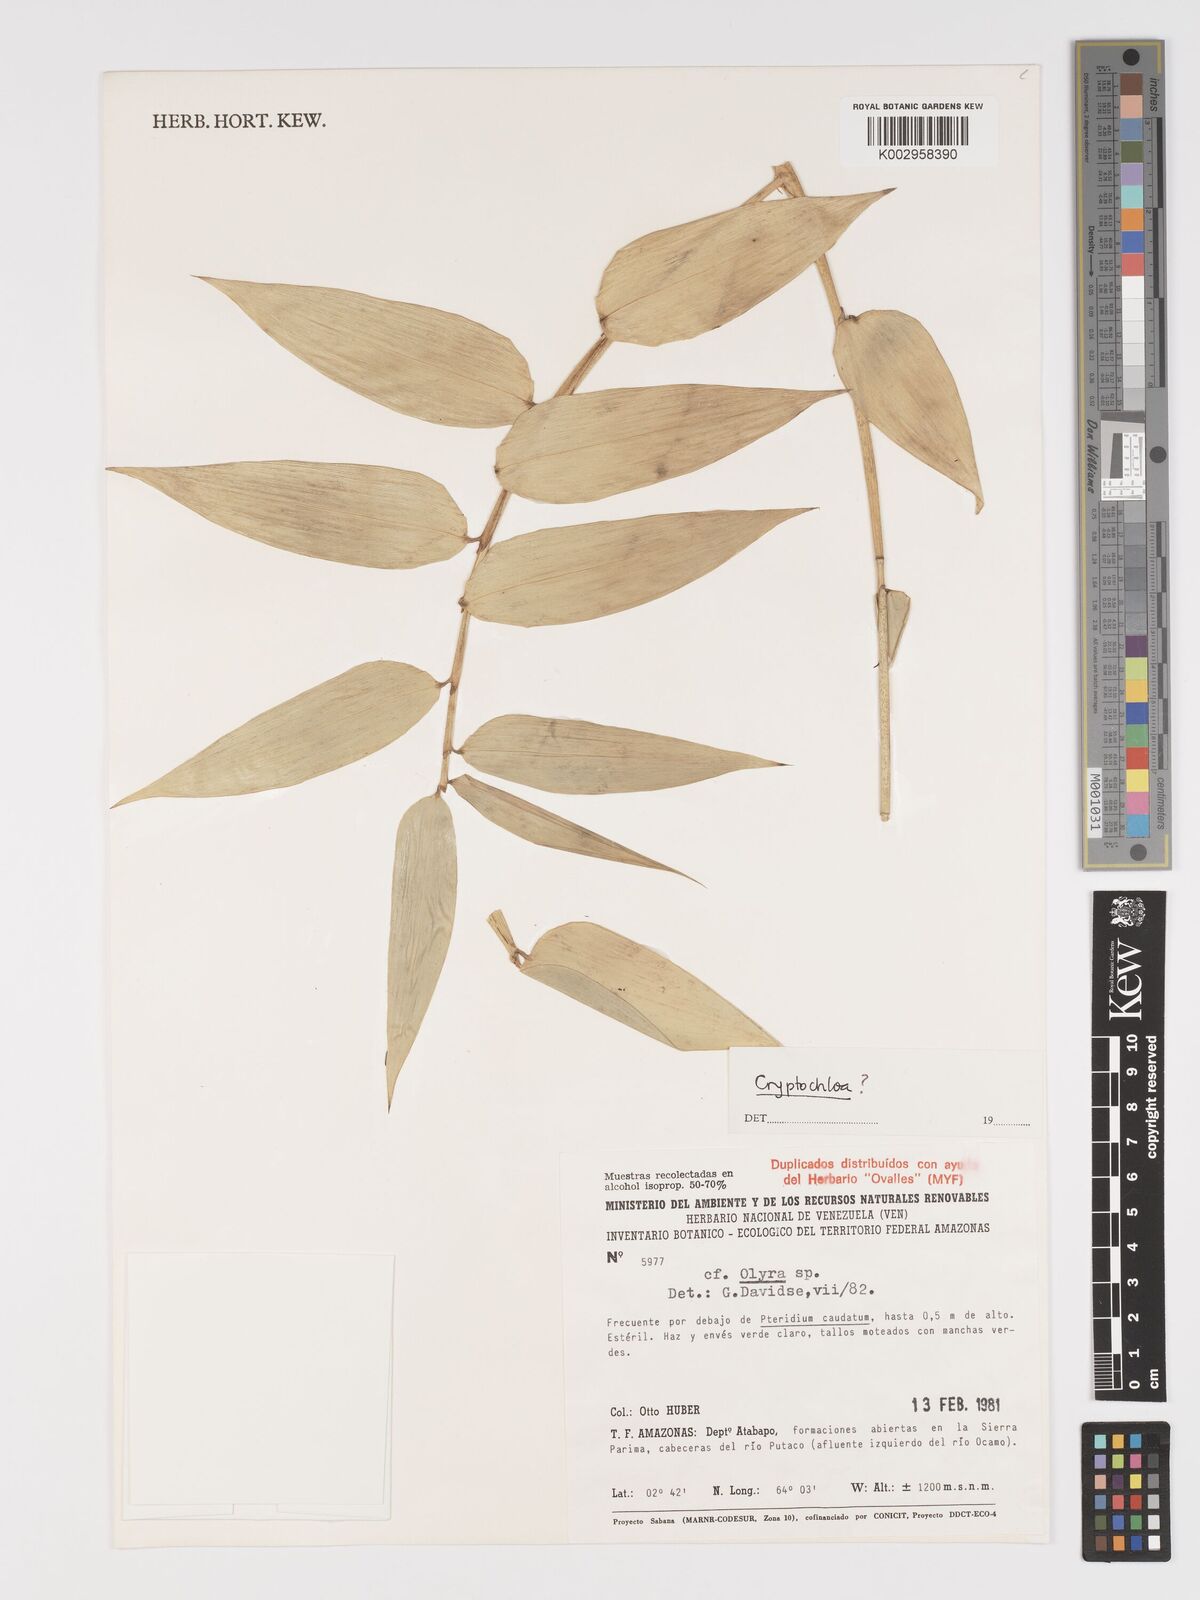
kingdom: Plantae
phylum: Tracheophyta
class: Liliopsida
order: Poales
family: Poaceae
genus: Cryptochloa
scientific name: Cryptochloa
